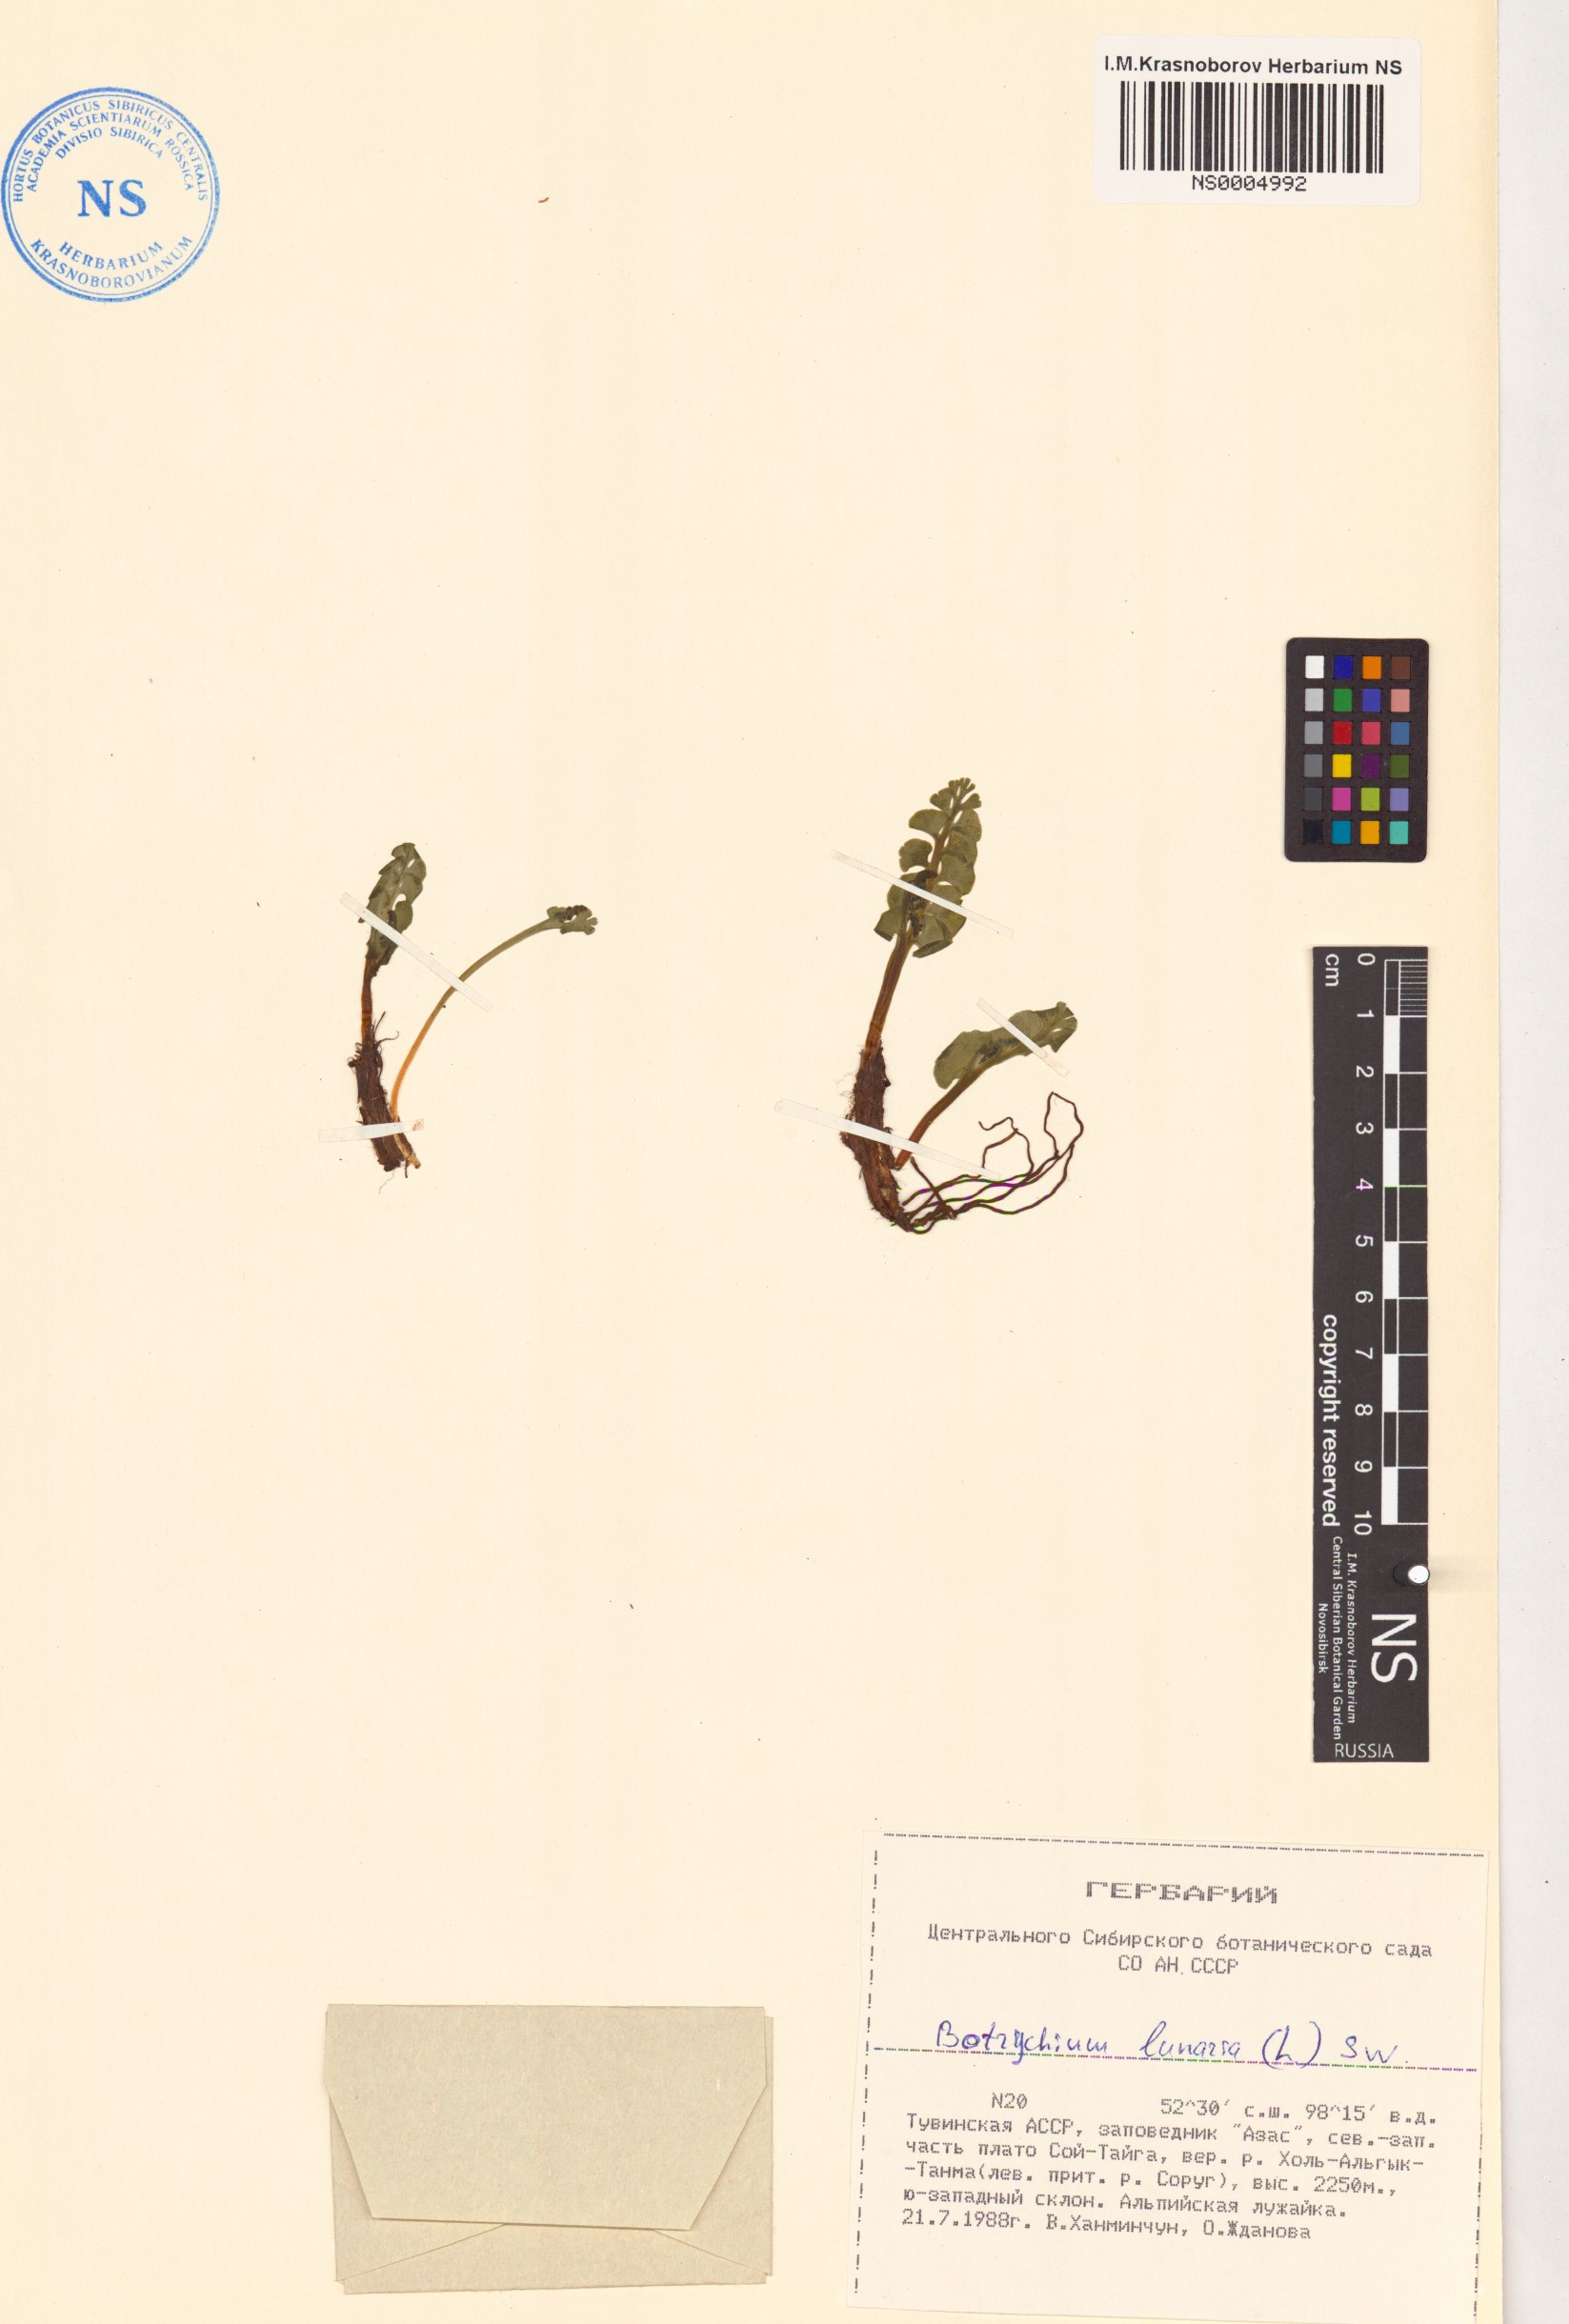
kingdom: Plantae
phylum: Tracheophyta
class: Polypodiopsida
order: Ophioglossales
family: Ophioglossaceae
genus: Botrychium
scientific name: Botrychium lunaria
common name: Moonwort
